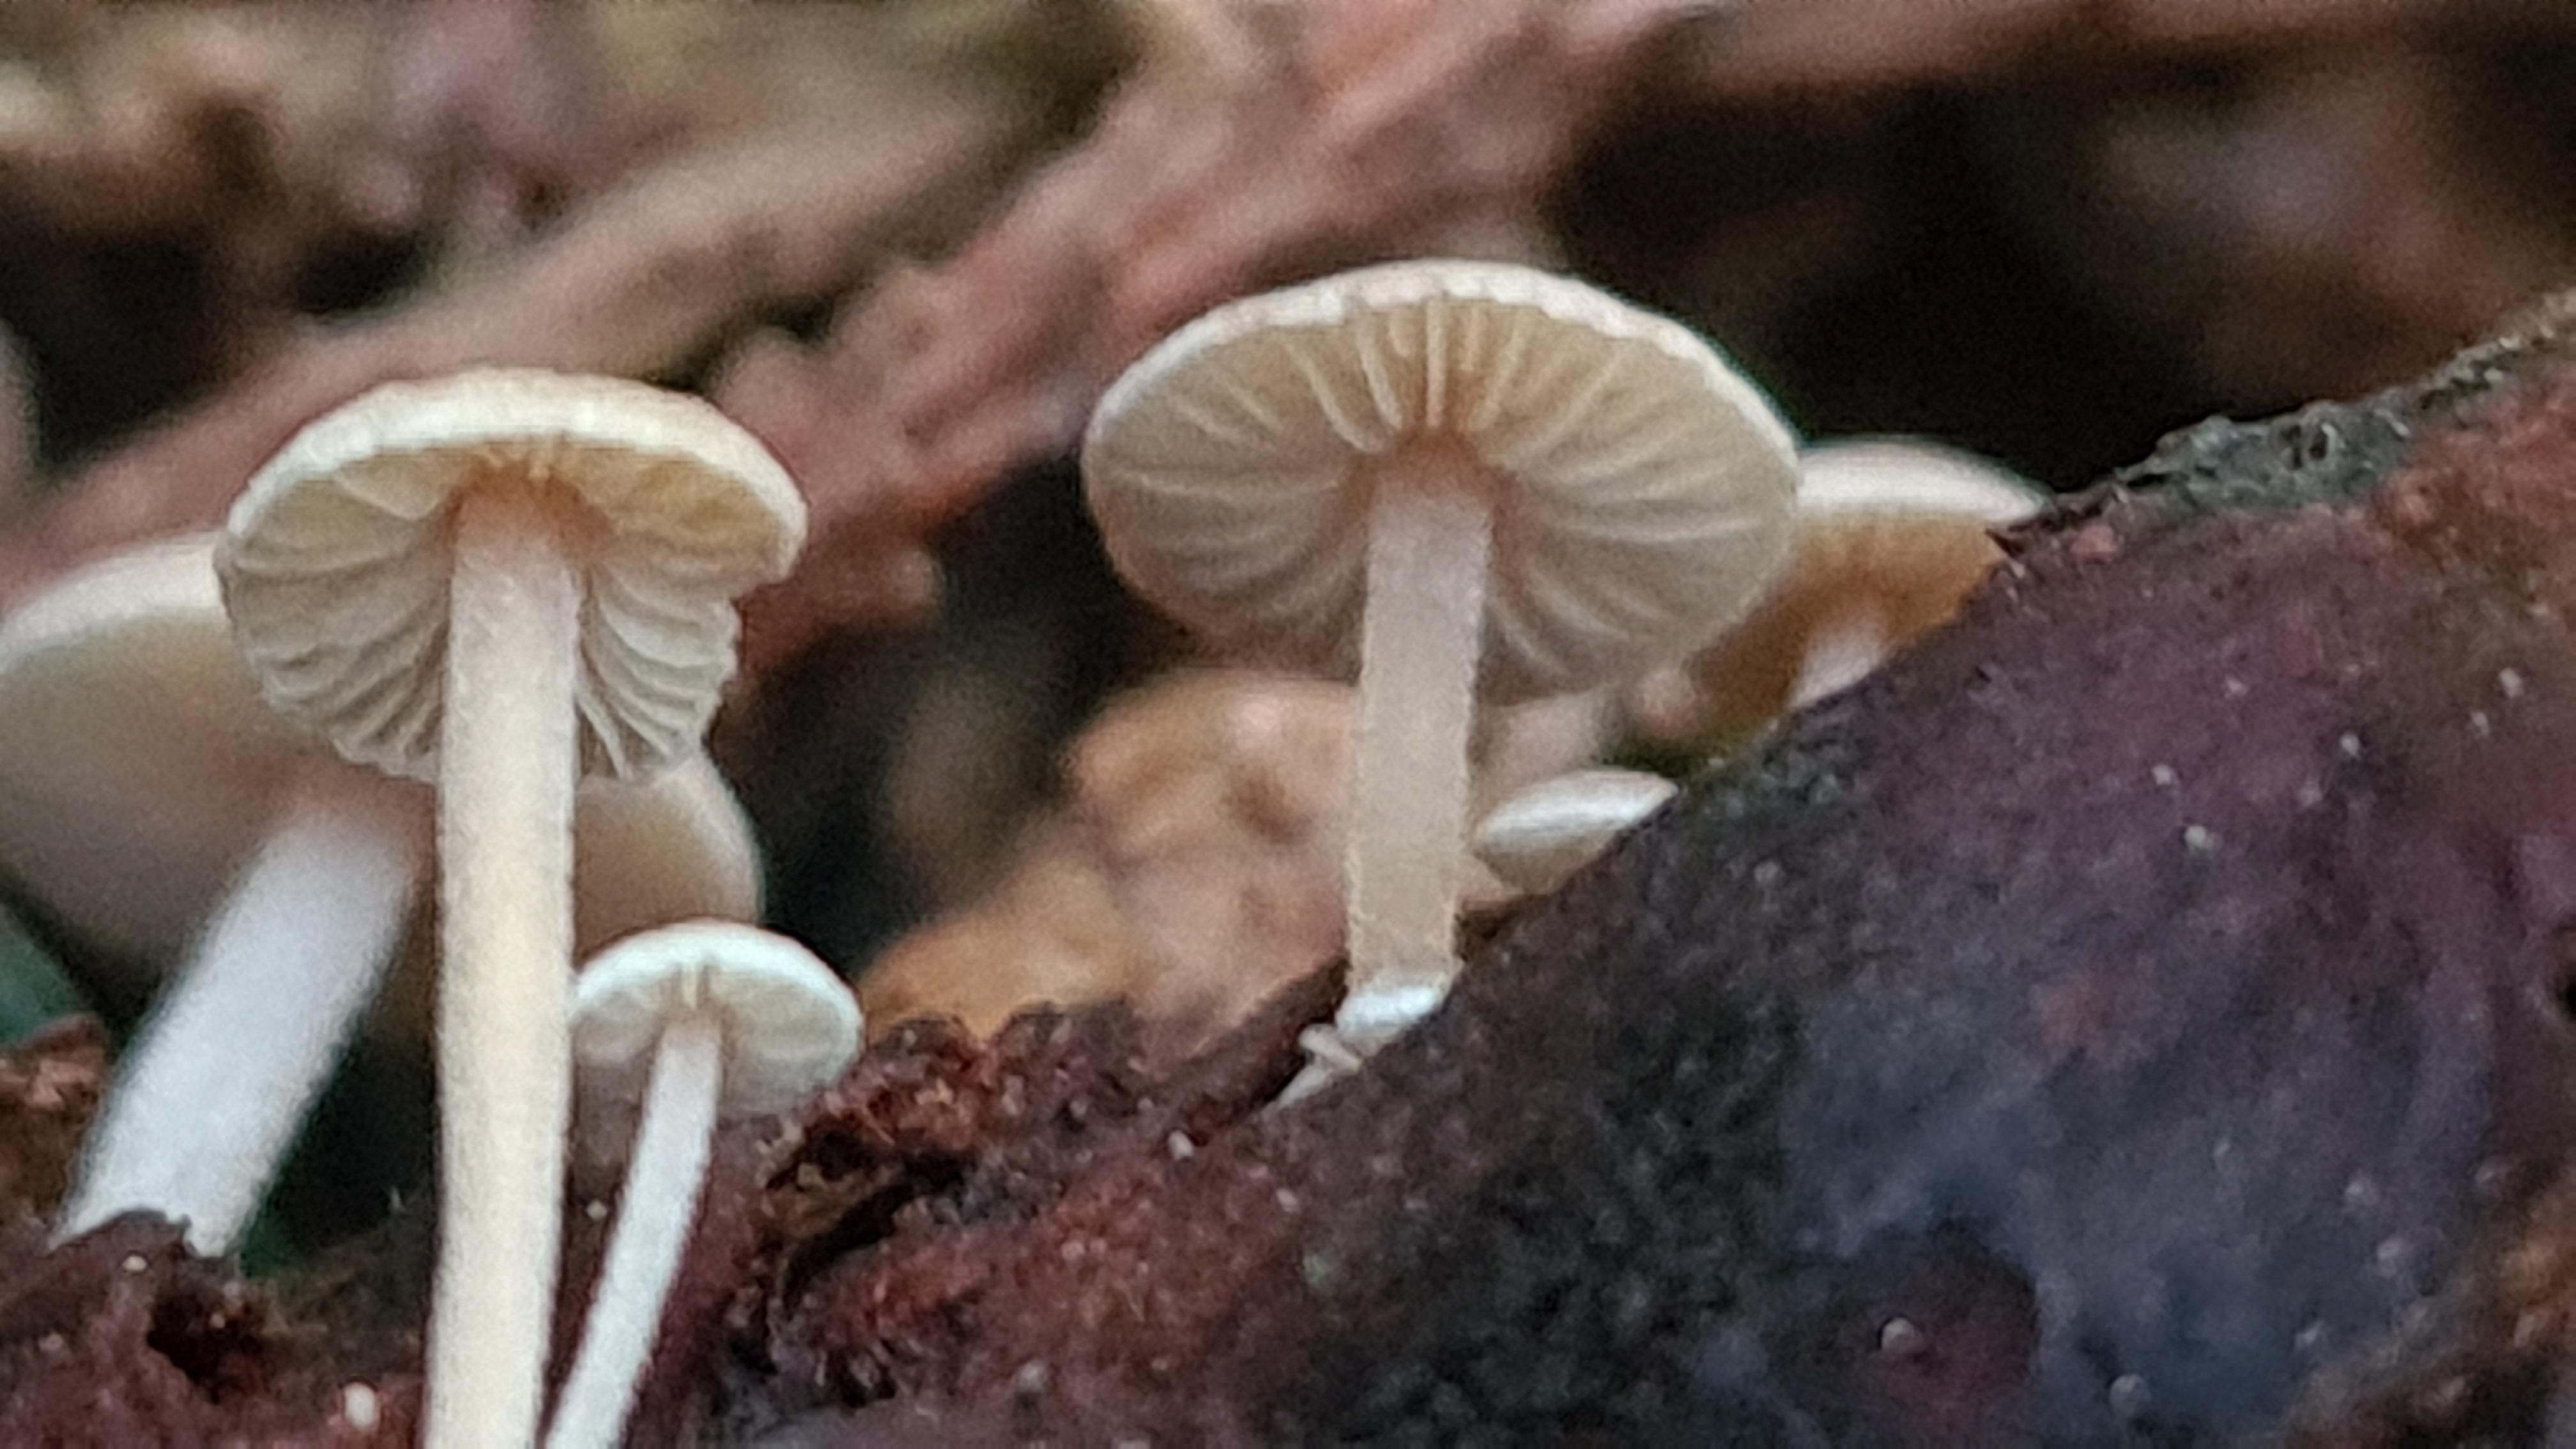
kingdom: Fungi
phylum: Basidiomycota
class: Agaricomycetes
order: Agaricales
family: Marasmiaceae
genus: Baeospora
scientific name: Baeospora myosura
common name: koglebruskhat
